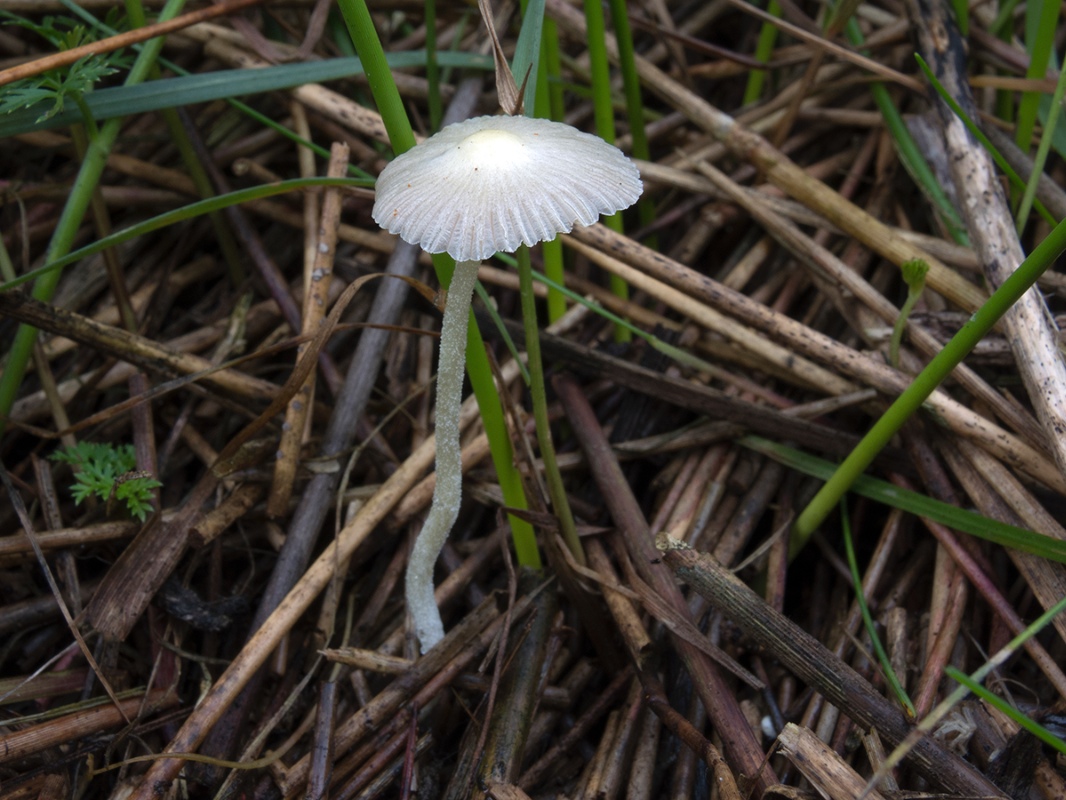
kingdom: Fungi
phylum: Basidiomycota
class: Agaricomycetes
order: Agaricales
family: Bolbitiaceae
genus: Bolbitius
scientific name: Bolbitius titubans
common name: almindelig gulhat
